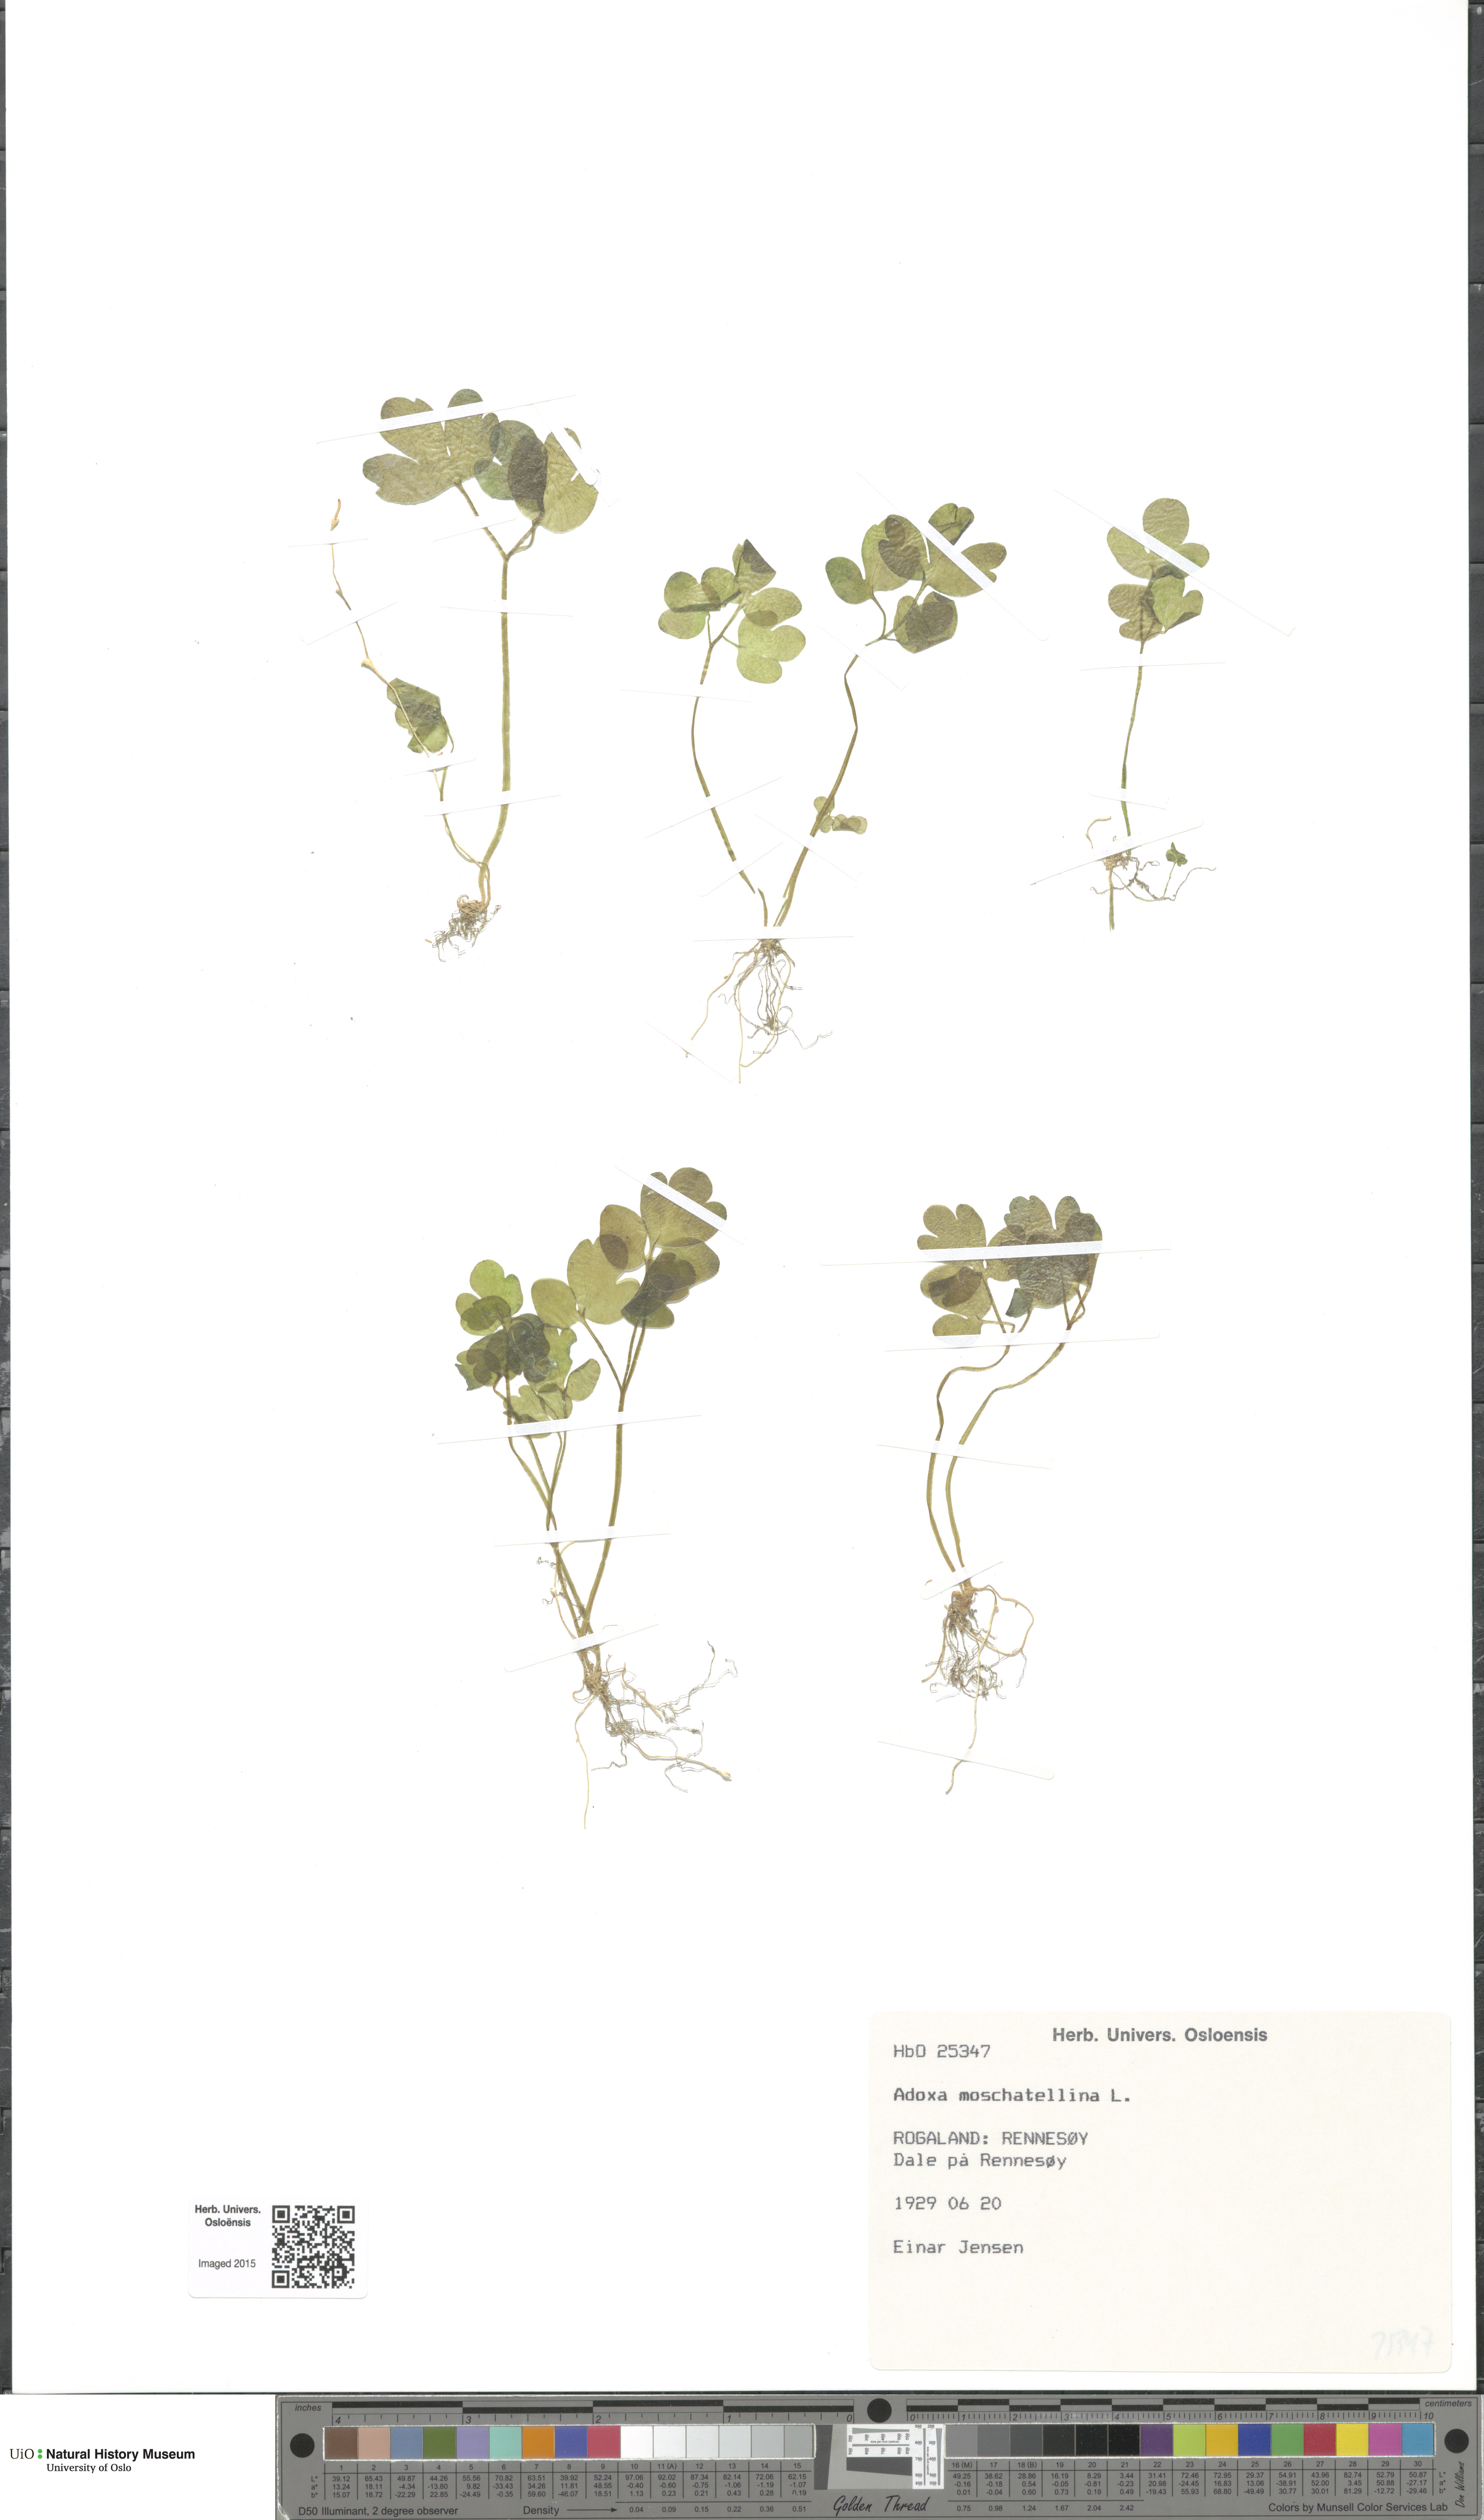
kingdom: Plantae
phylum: Tracheophyta
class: Magnoliopsida
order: Dipsacales
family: Viburnaceae
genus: Adoxa
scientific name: Adoxa moschatellina
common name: Moschatel
